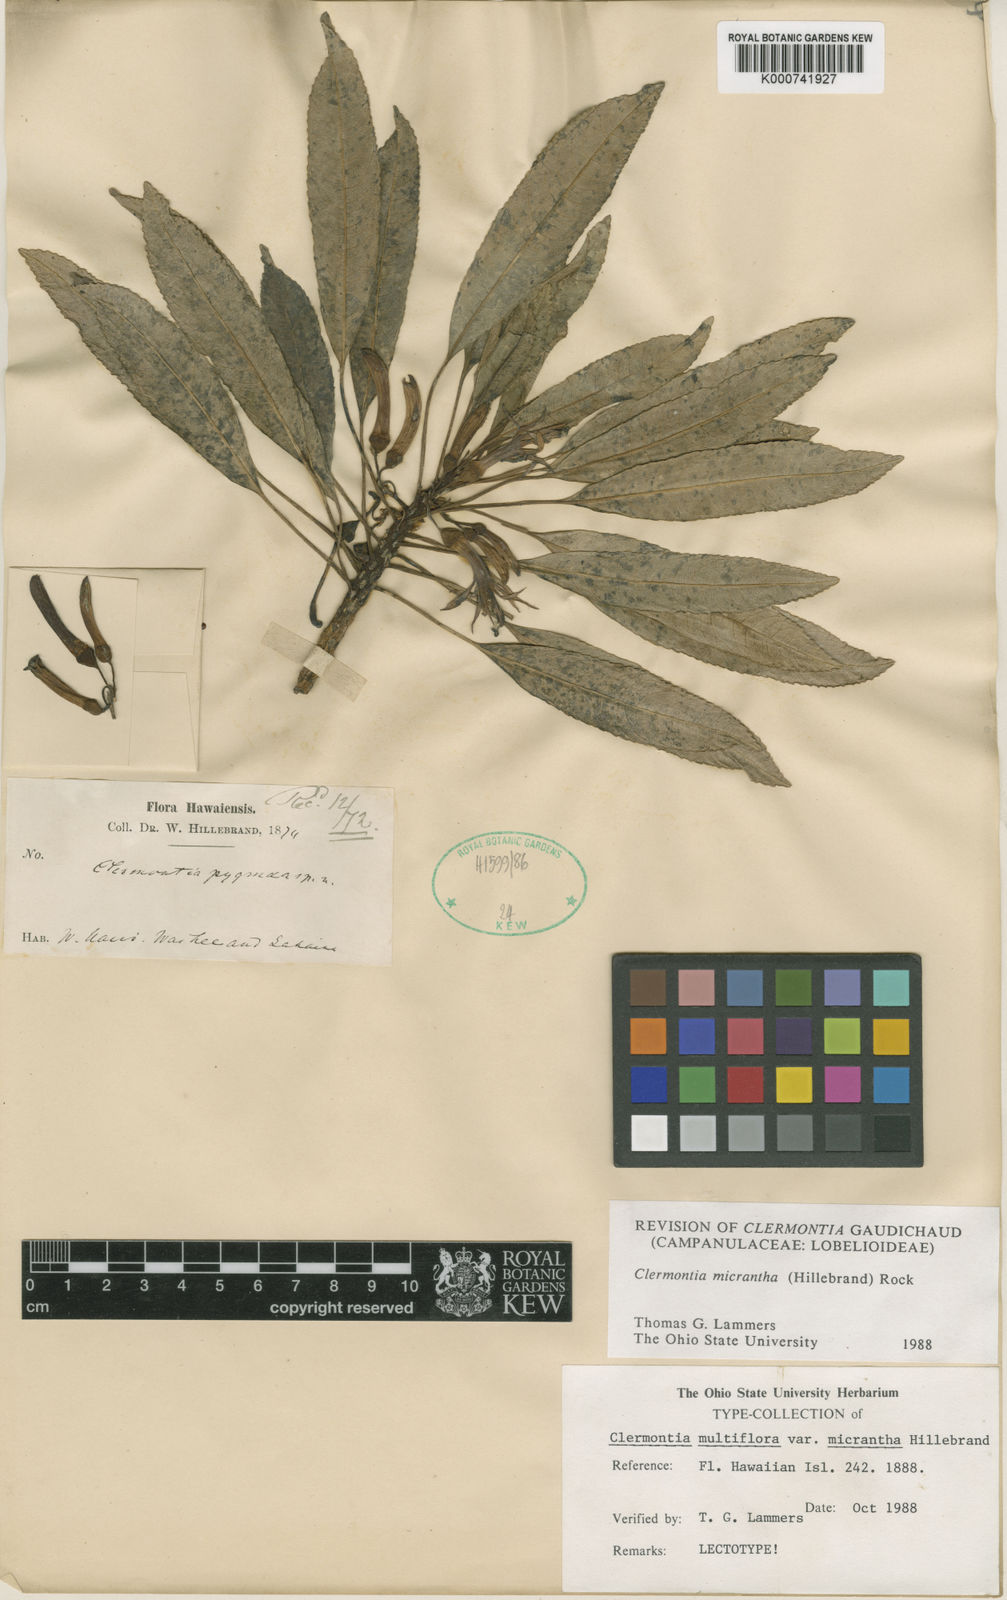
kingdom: Plantae
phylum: Tracheophyta
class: Magnoliopsida
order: Asterales
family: Campanulaceae
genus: Clermontia
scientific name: Clermontia micrantha
